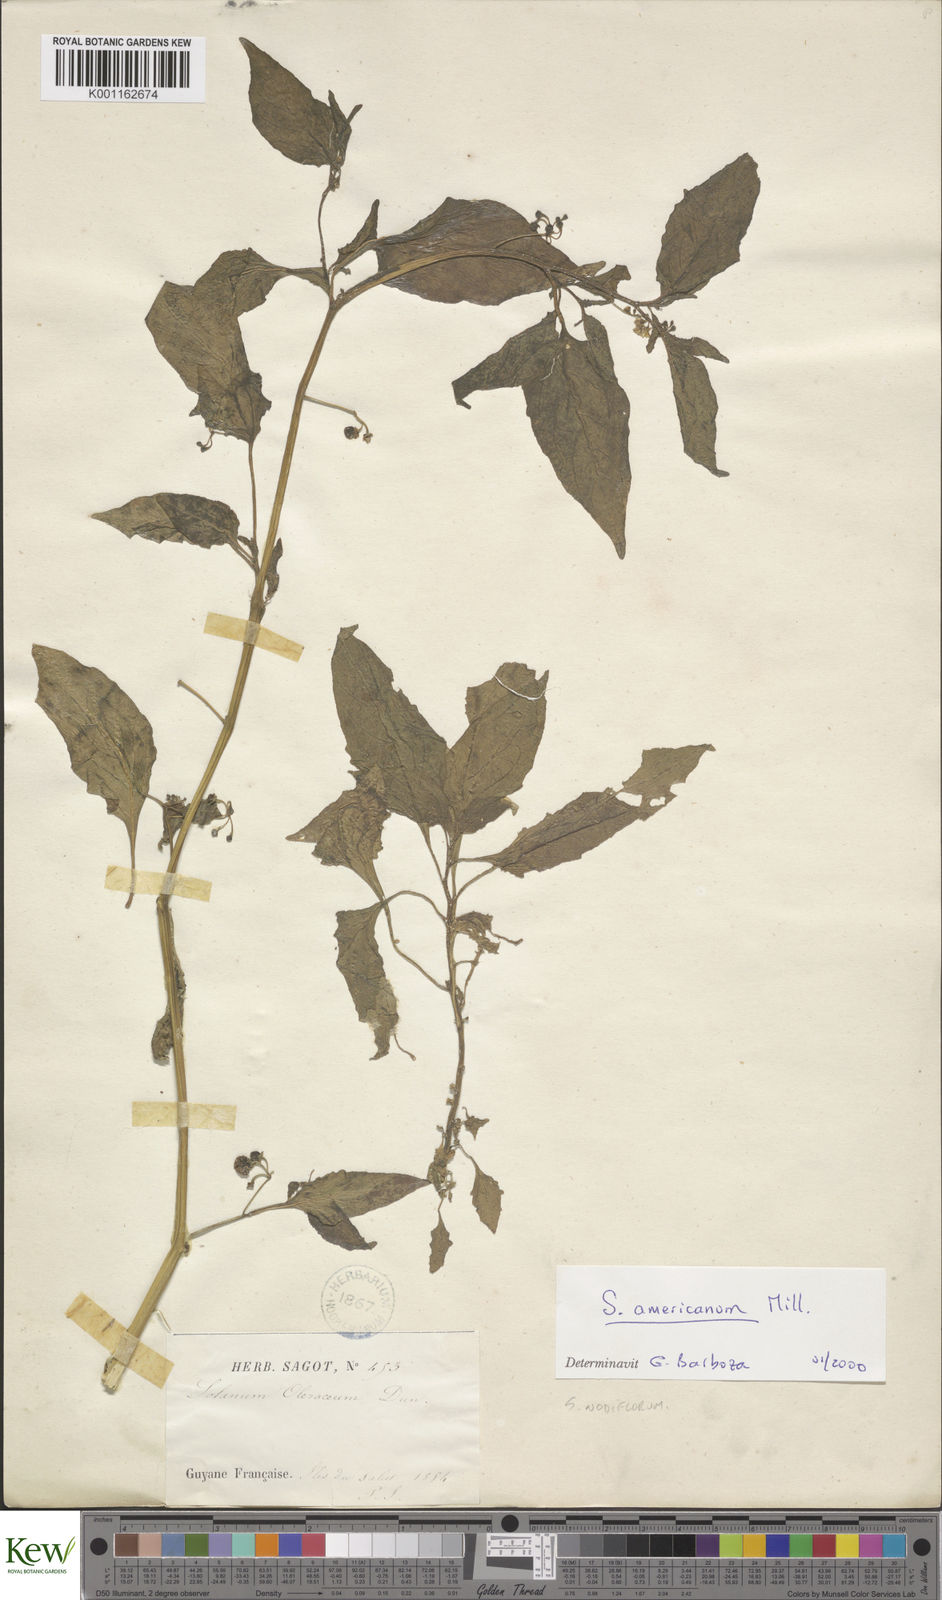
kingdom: Plantae
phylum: Tracheophyta
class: Magnoliopsida
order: Solanales
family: Solanaceae
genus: Solanum
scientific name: Solanum americanum
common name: American black nightshade
